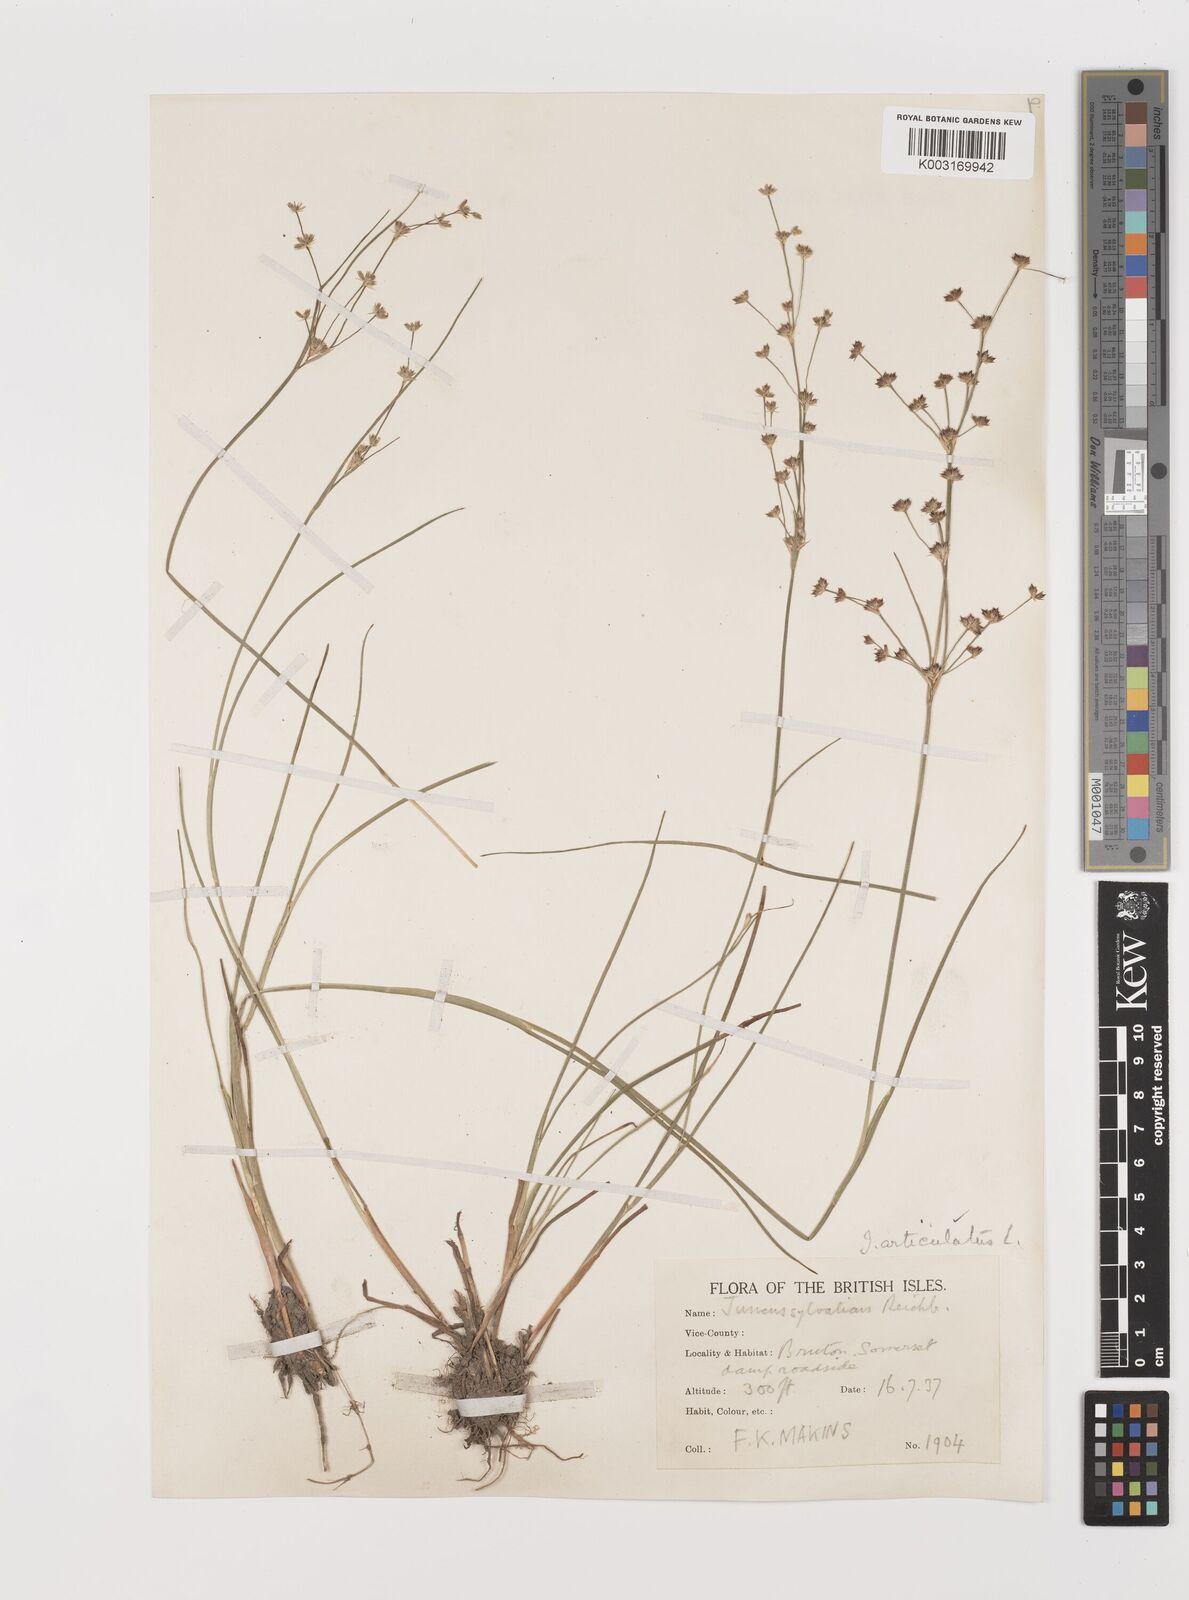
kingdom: Plantae
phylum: Tracheophyta
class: Liliopsida
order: Poales
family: Juncaceae
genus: Juncus
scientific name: Juncus articulatus
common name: Jointed rush
